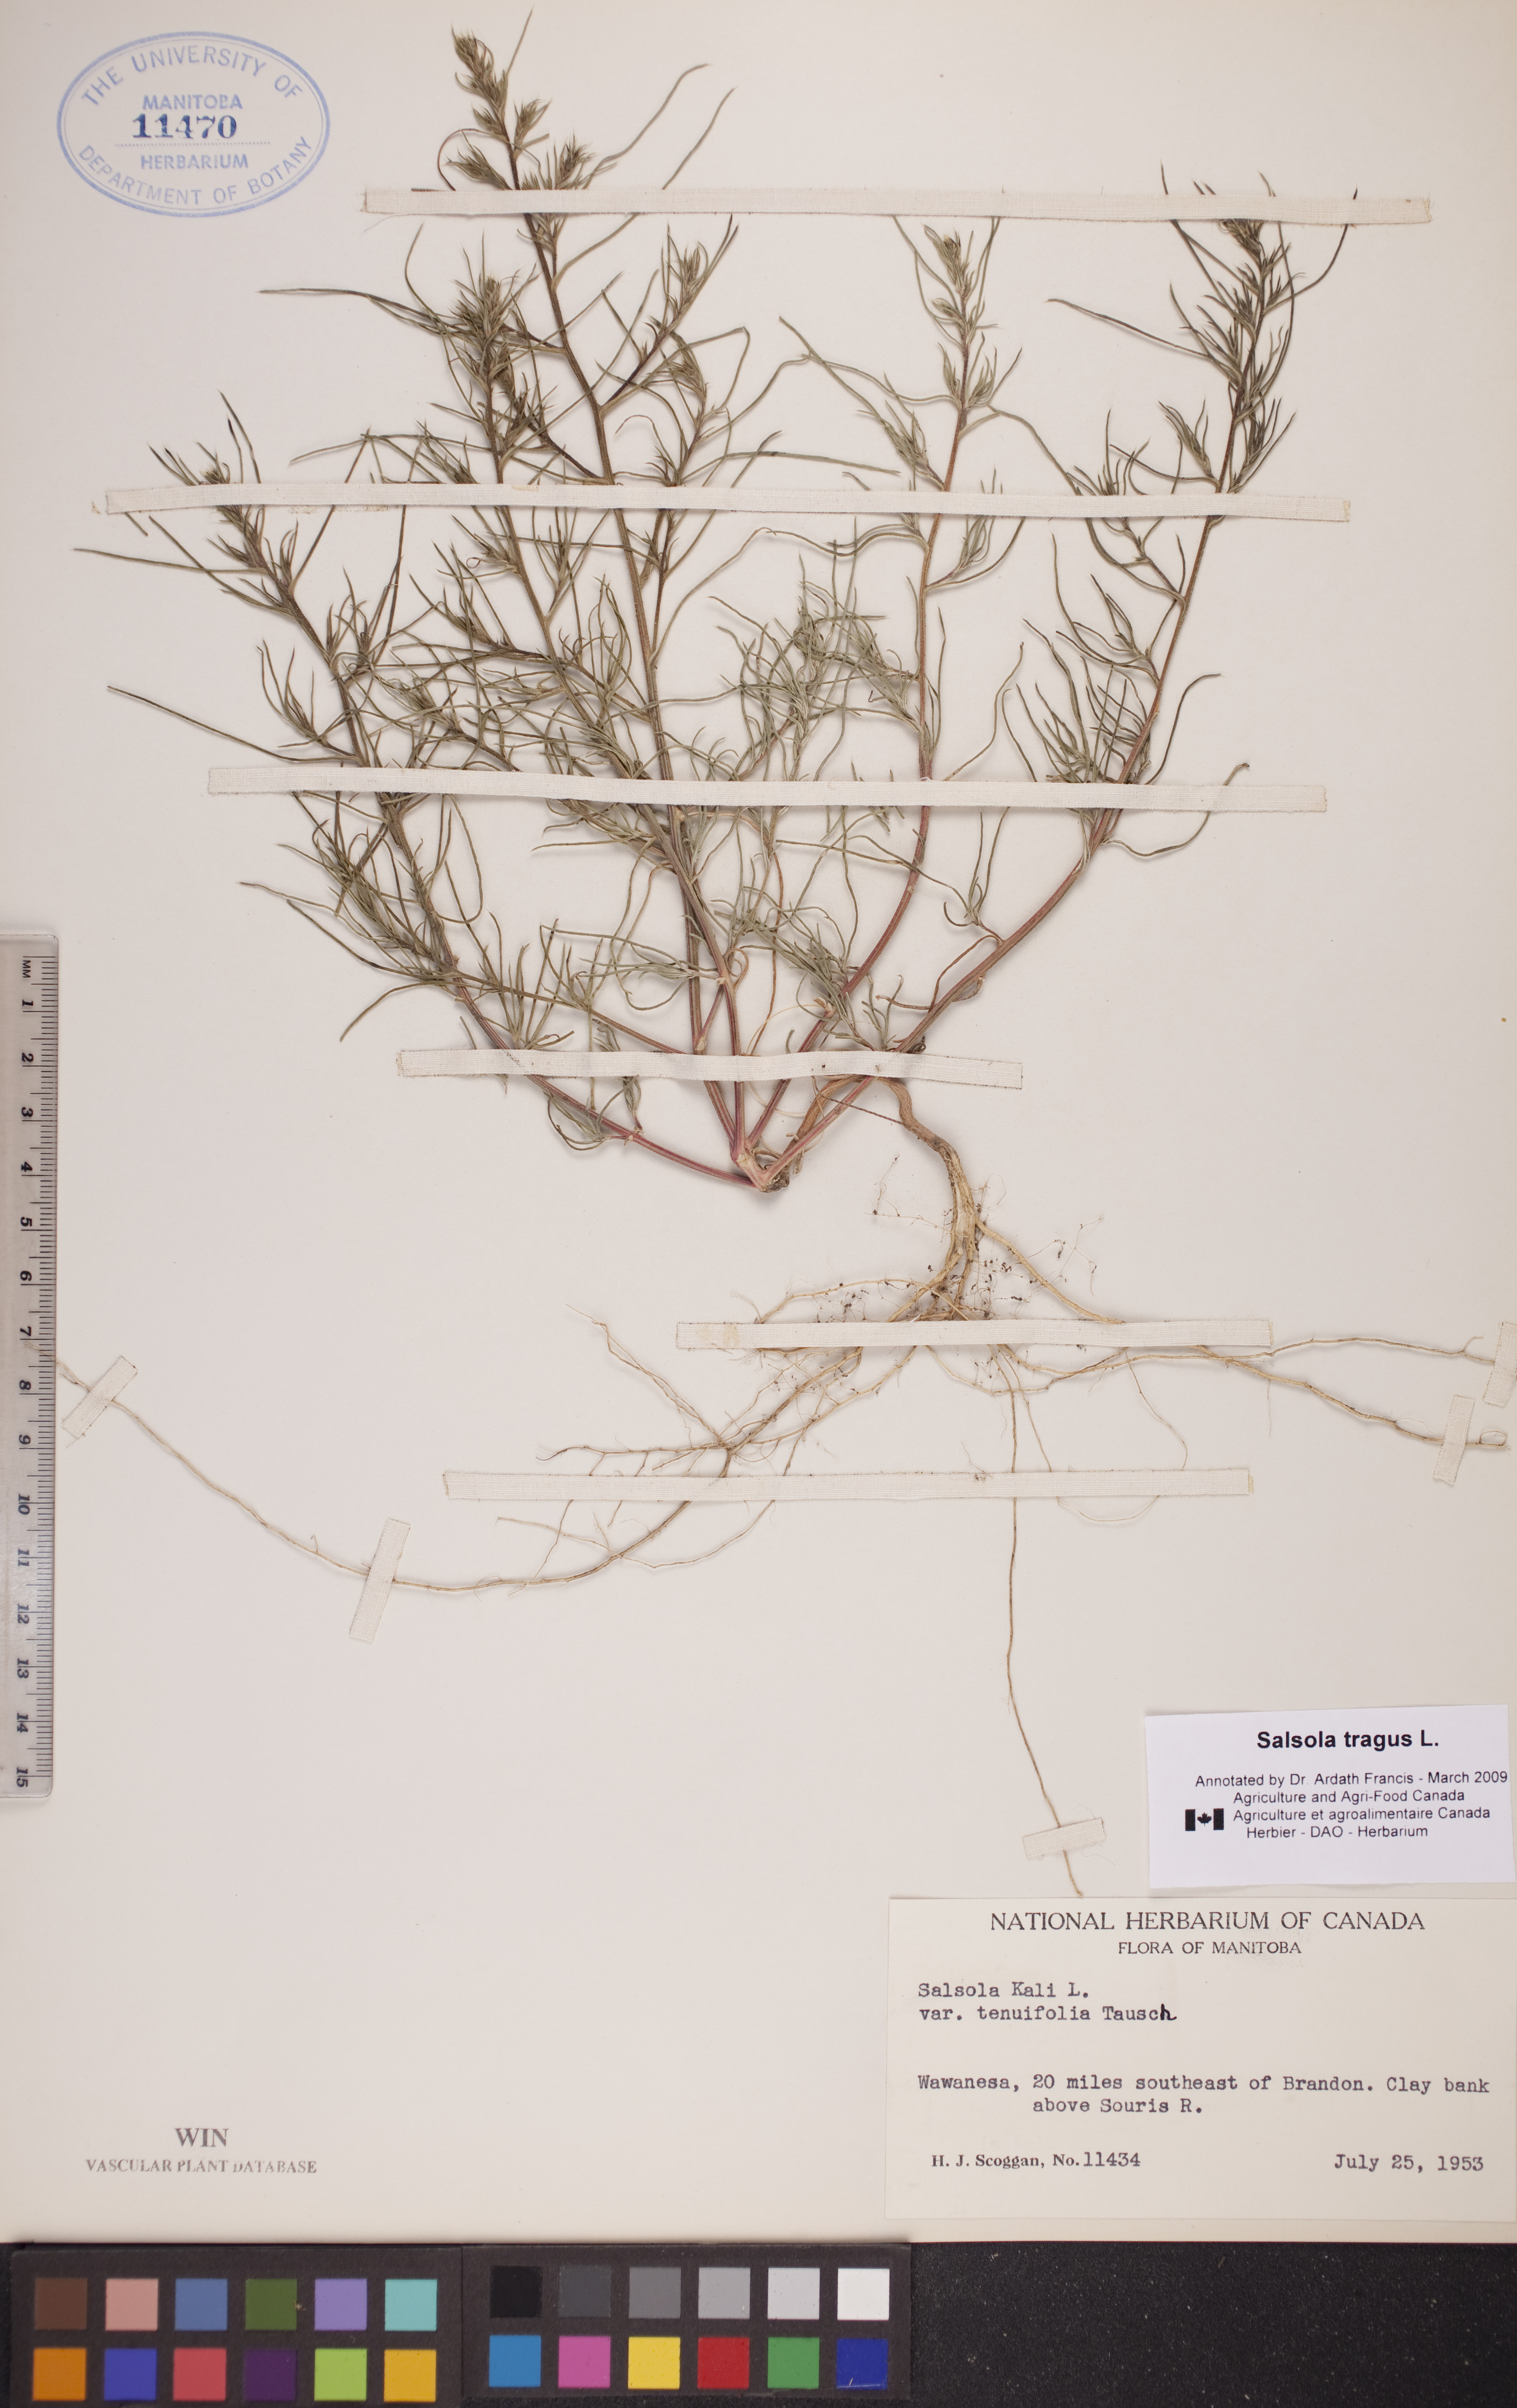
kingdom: Plantae
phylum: Tracheophyta
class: Magnoliopsida
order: Caryophyllales
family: Amaranthaceae
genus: Salsola
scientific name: Salsola tragus
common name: Prickly russian thistle
